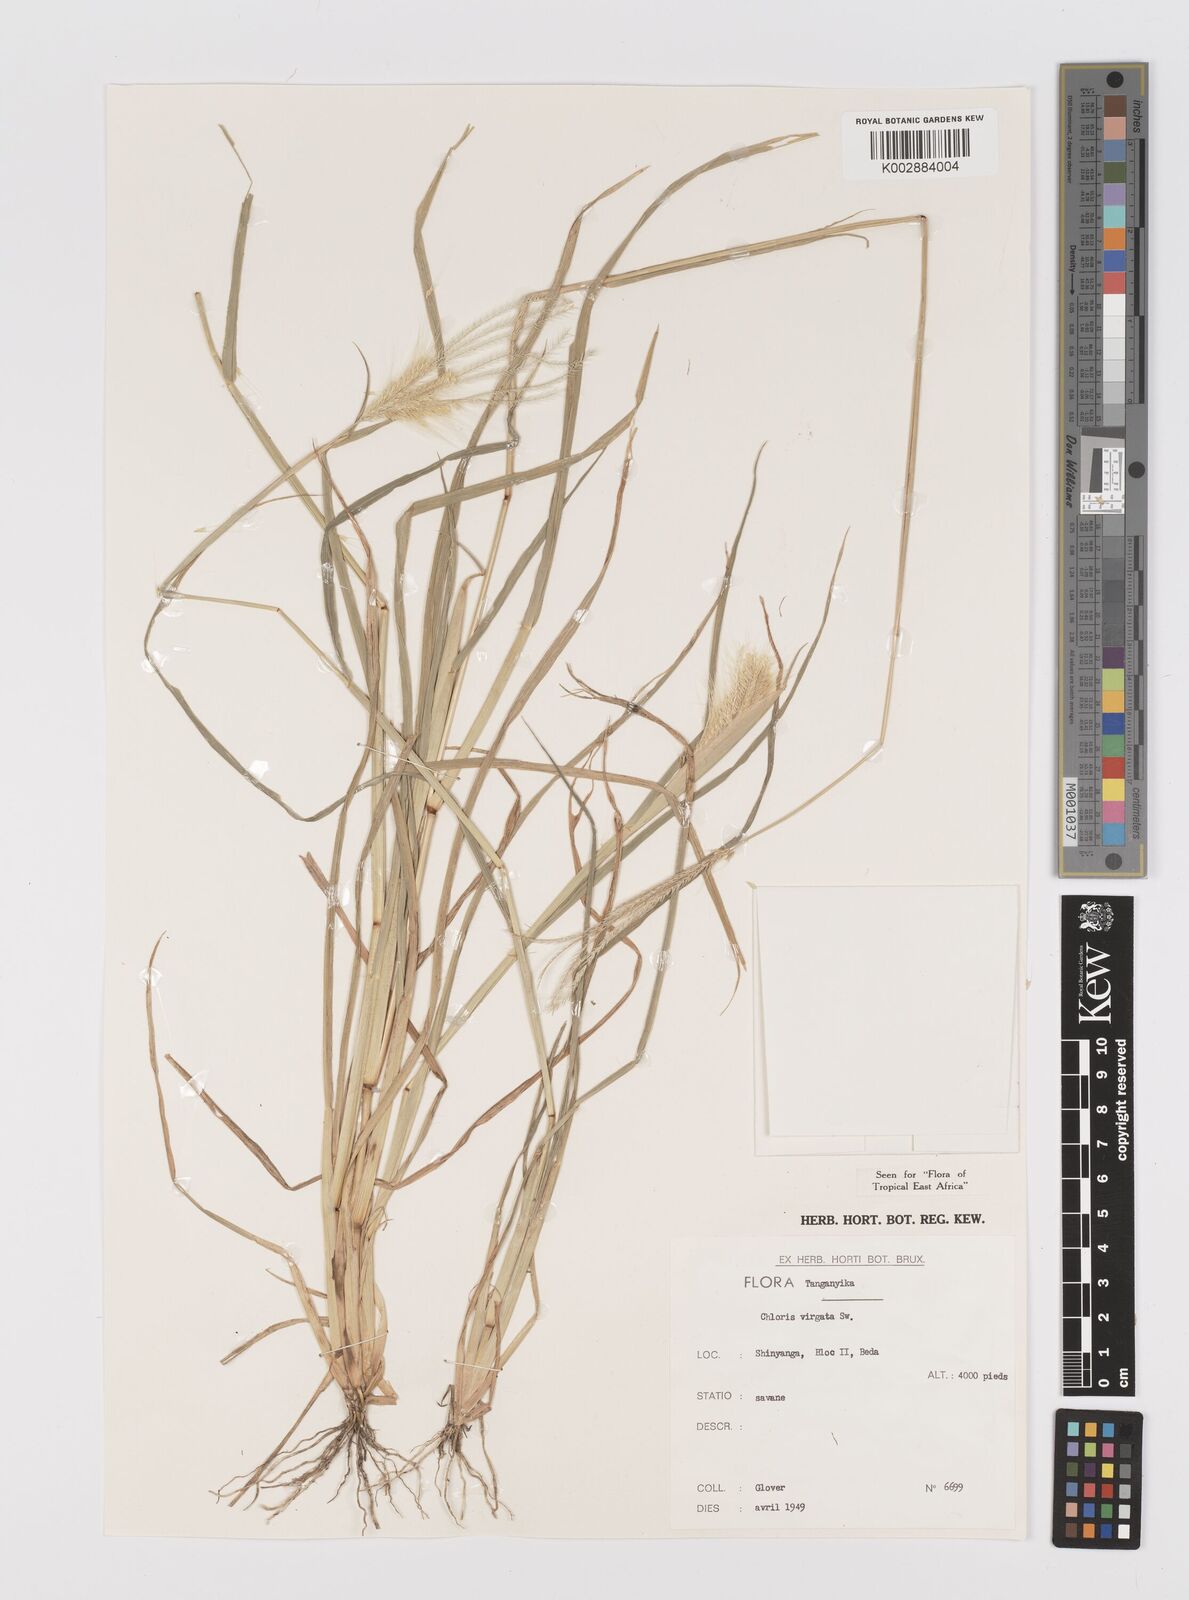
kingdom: Plantae
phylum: Tracheophyta
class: Liliopsida
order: Poales
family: Poaceae
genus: Chloris
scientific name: Chloris virgata
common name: Feathery rhodes-grass
